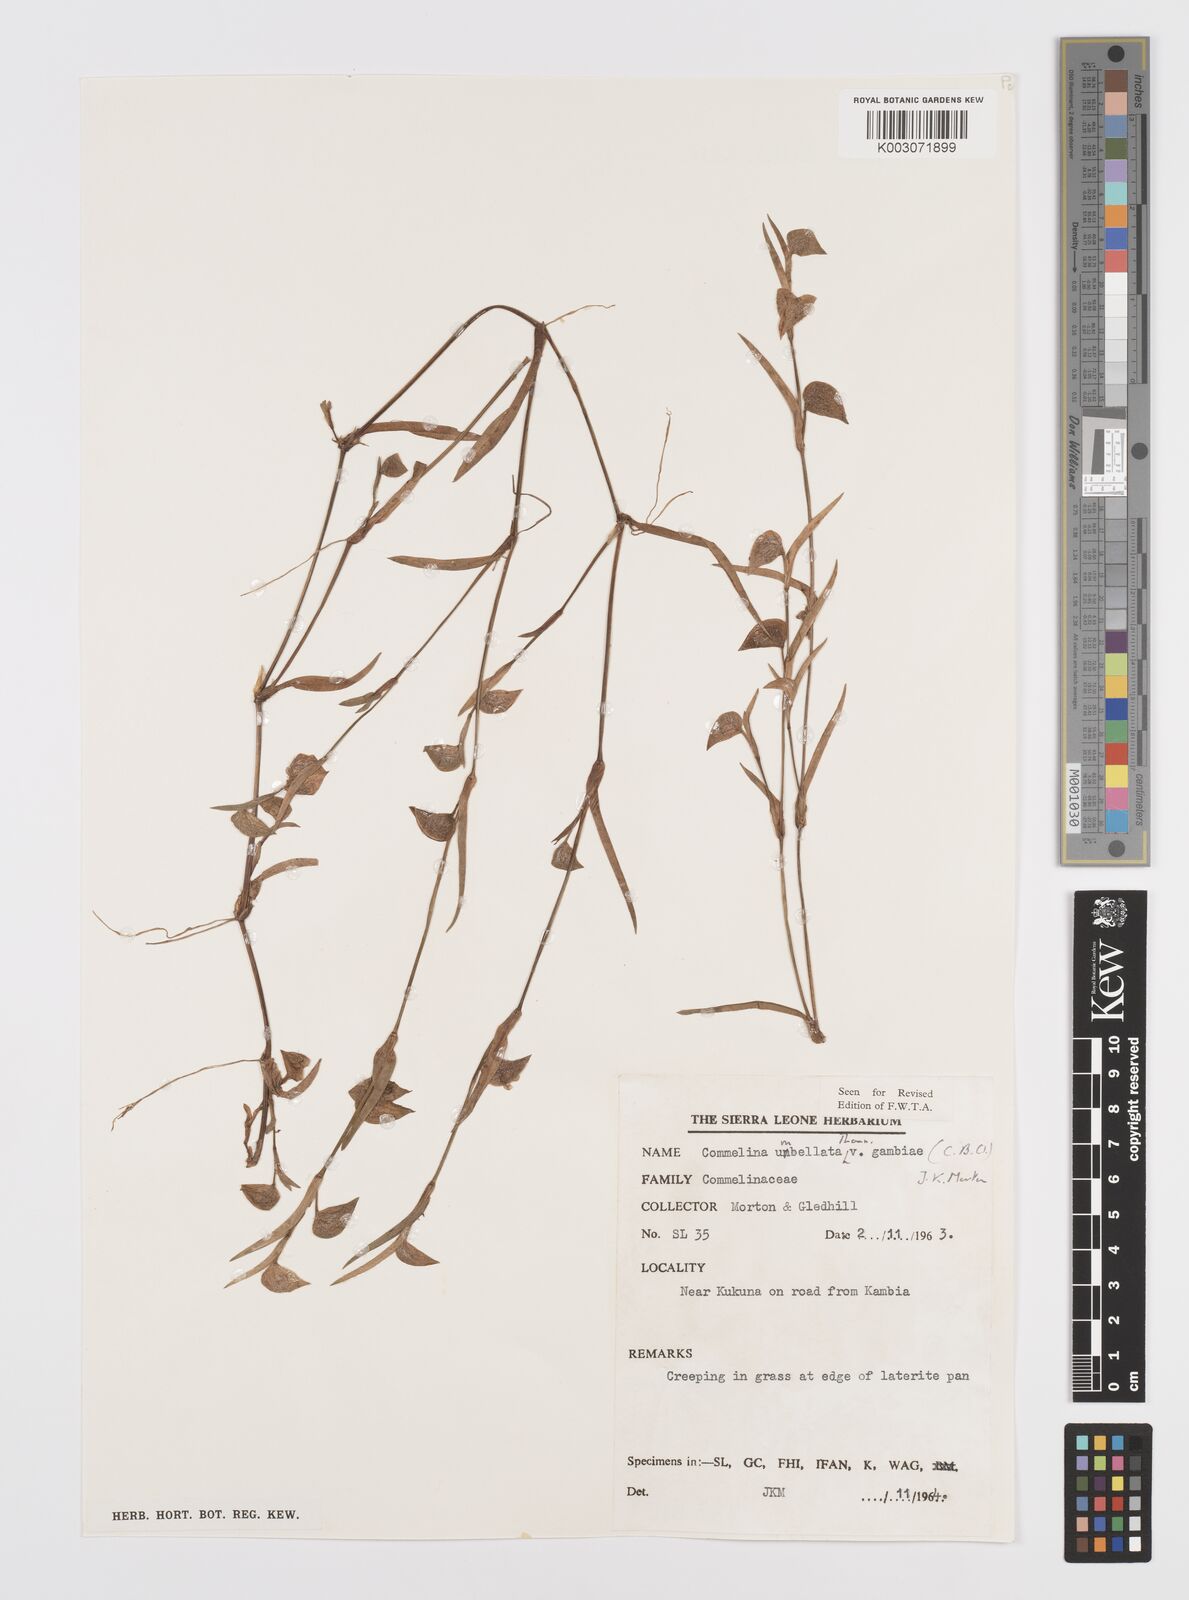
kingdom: Plantae
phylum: Tracheophyta
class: Liliopsida
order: Commelinales
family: Commelinaceae
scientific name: Commelinaceae
